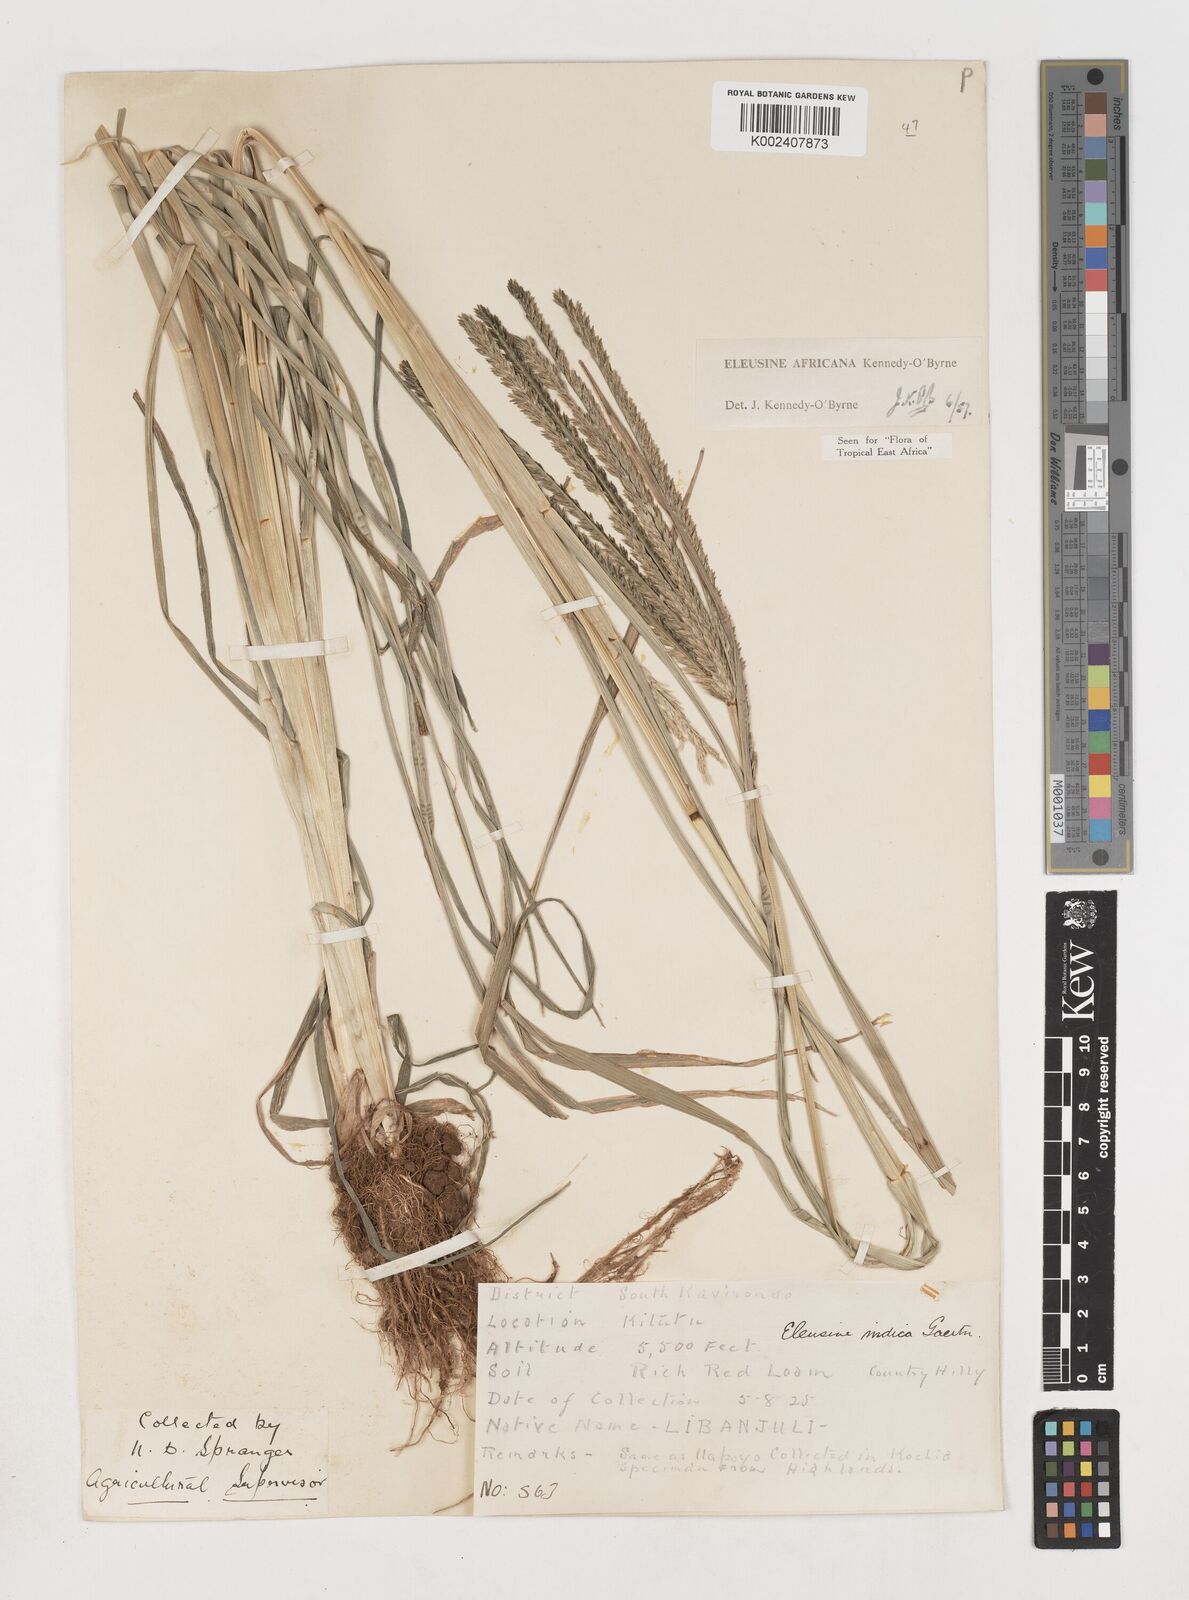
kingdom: Plantae
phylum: Tracheophyta
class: Liliopsida
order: Poales
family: Poaceae
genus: Eleusine
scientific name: Eleusine africana
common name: Wild african finger millet
